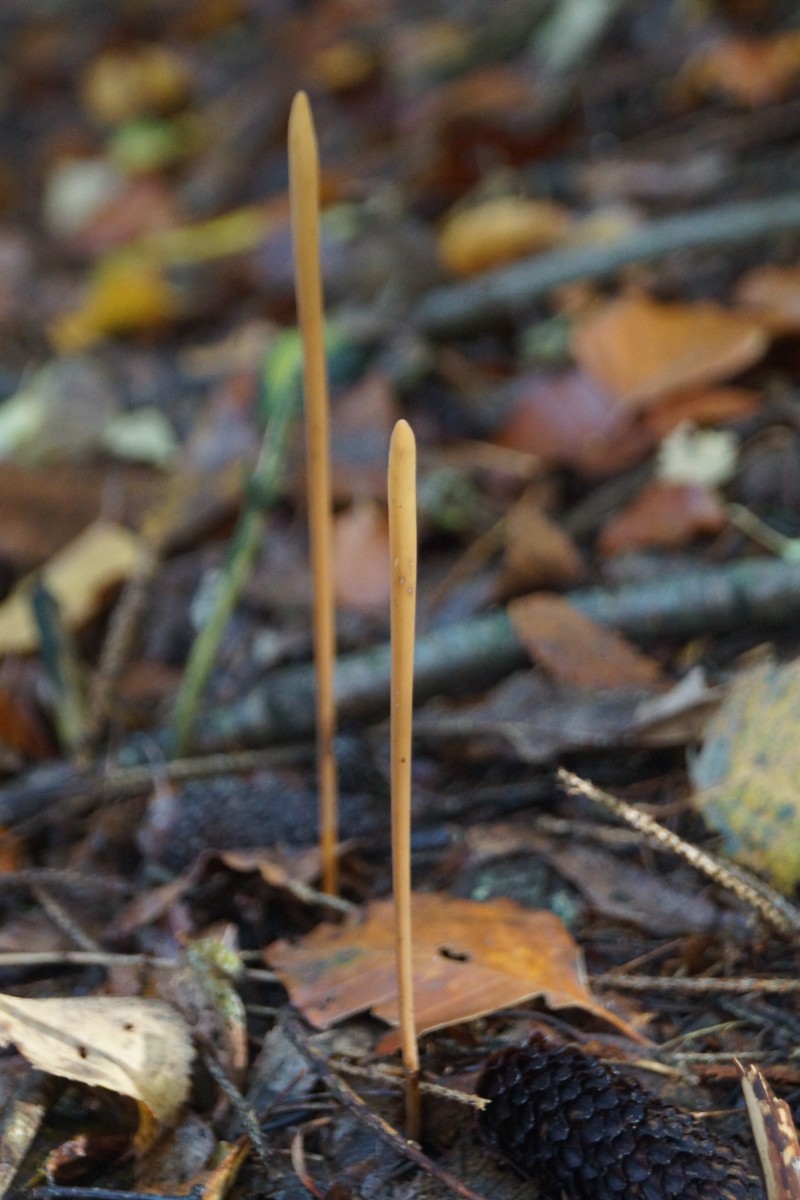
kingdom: Fungi
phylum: Basidiomycota
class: Agaricomycetes
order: Agaricales
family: Typhulaceae
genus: Typhula
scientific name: Typhula fistulosa
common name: pibet rørkølle
